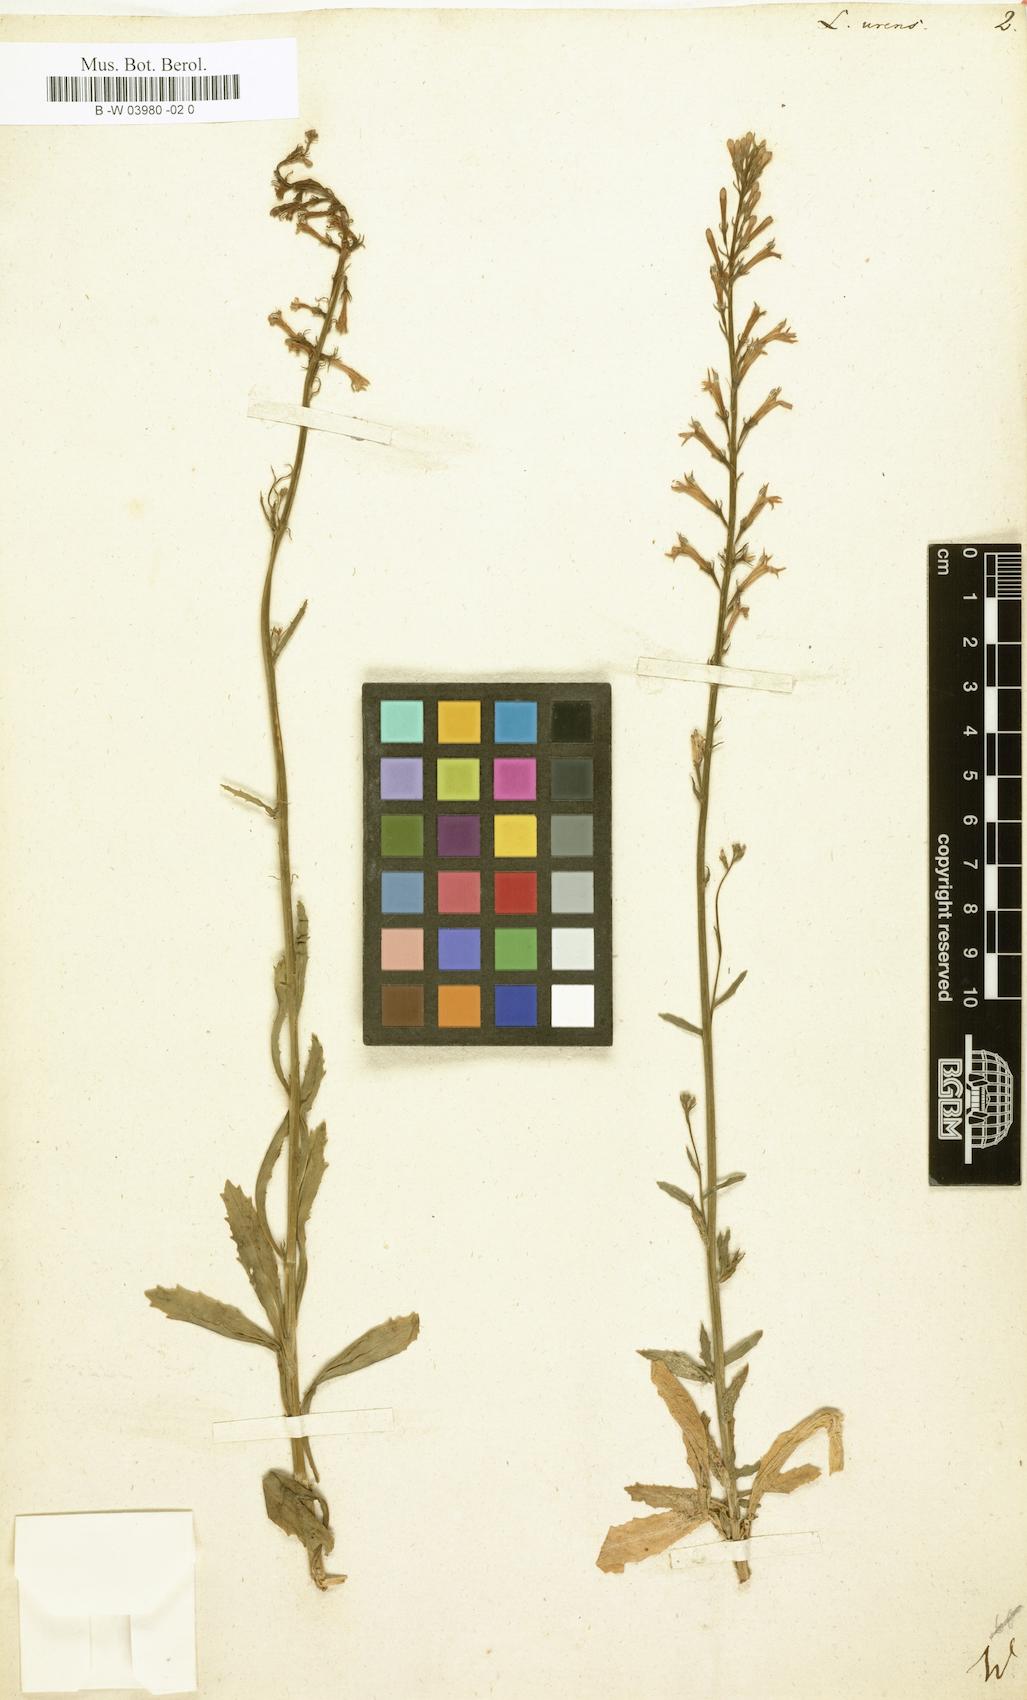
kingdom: Plantae
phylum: Tracheophyta
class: Magnoliopsida
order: Asterales
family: Campanulaceae
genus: Lobelia
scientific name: Lobelia urens
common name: Heath lobelia
